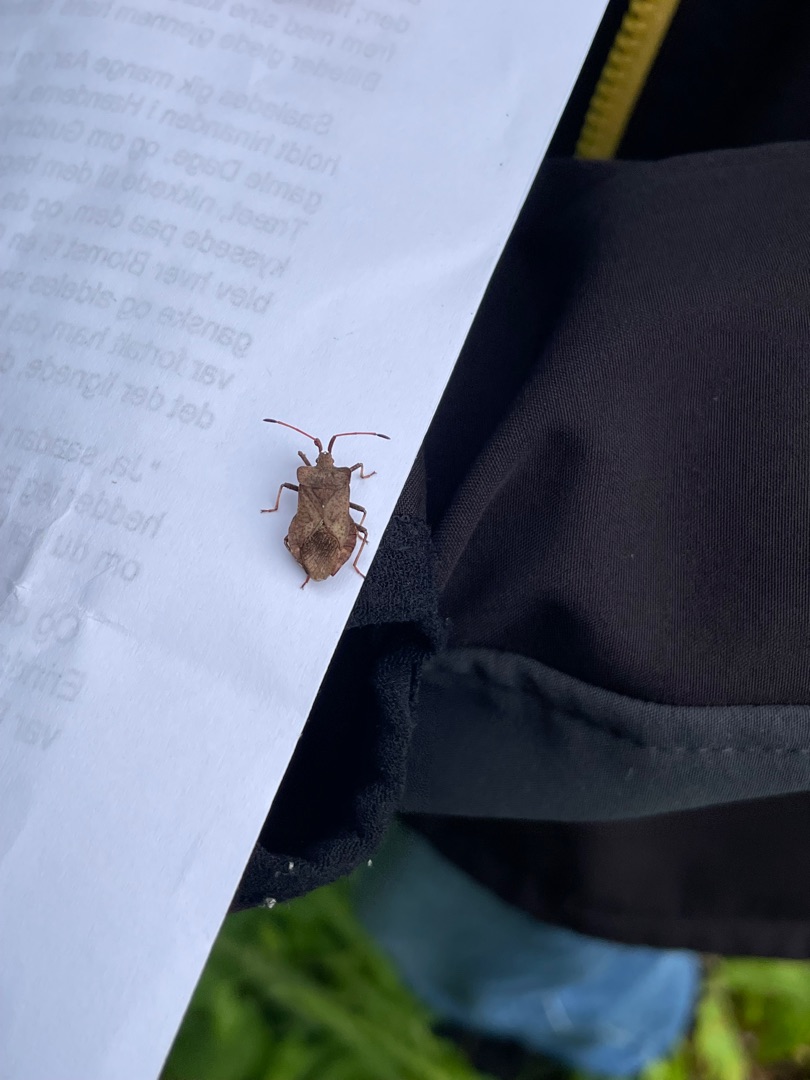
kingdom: Animalia
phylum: Arthropoda
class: Insecta
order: Hemiptera
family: Coreidae
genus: Coreus
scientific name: Coreus marginatus
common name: Skræppetæge
